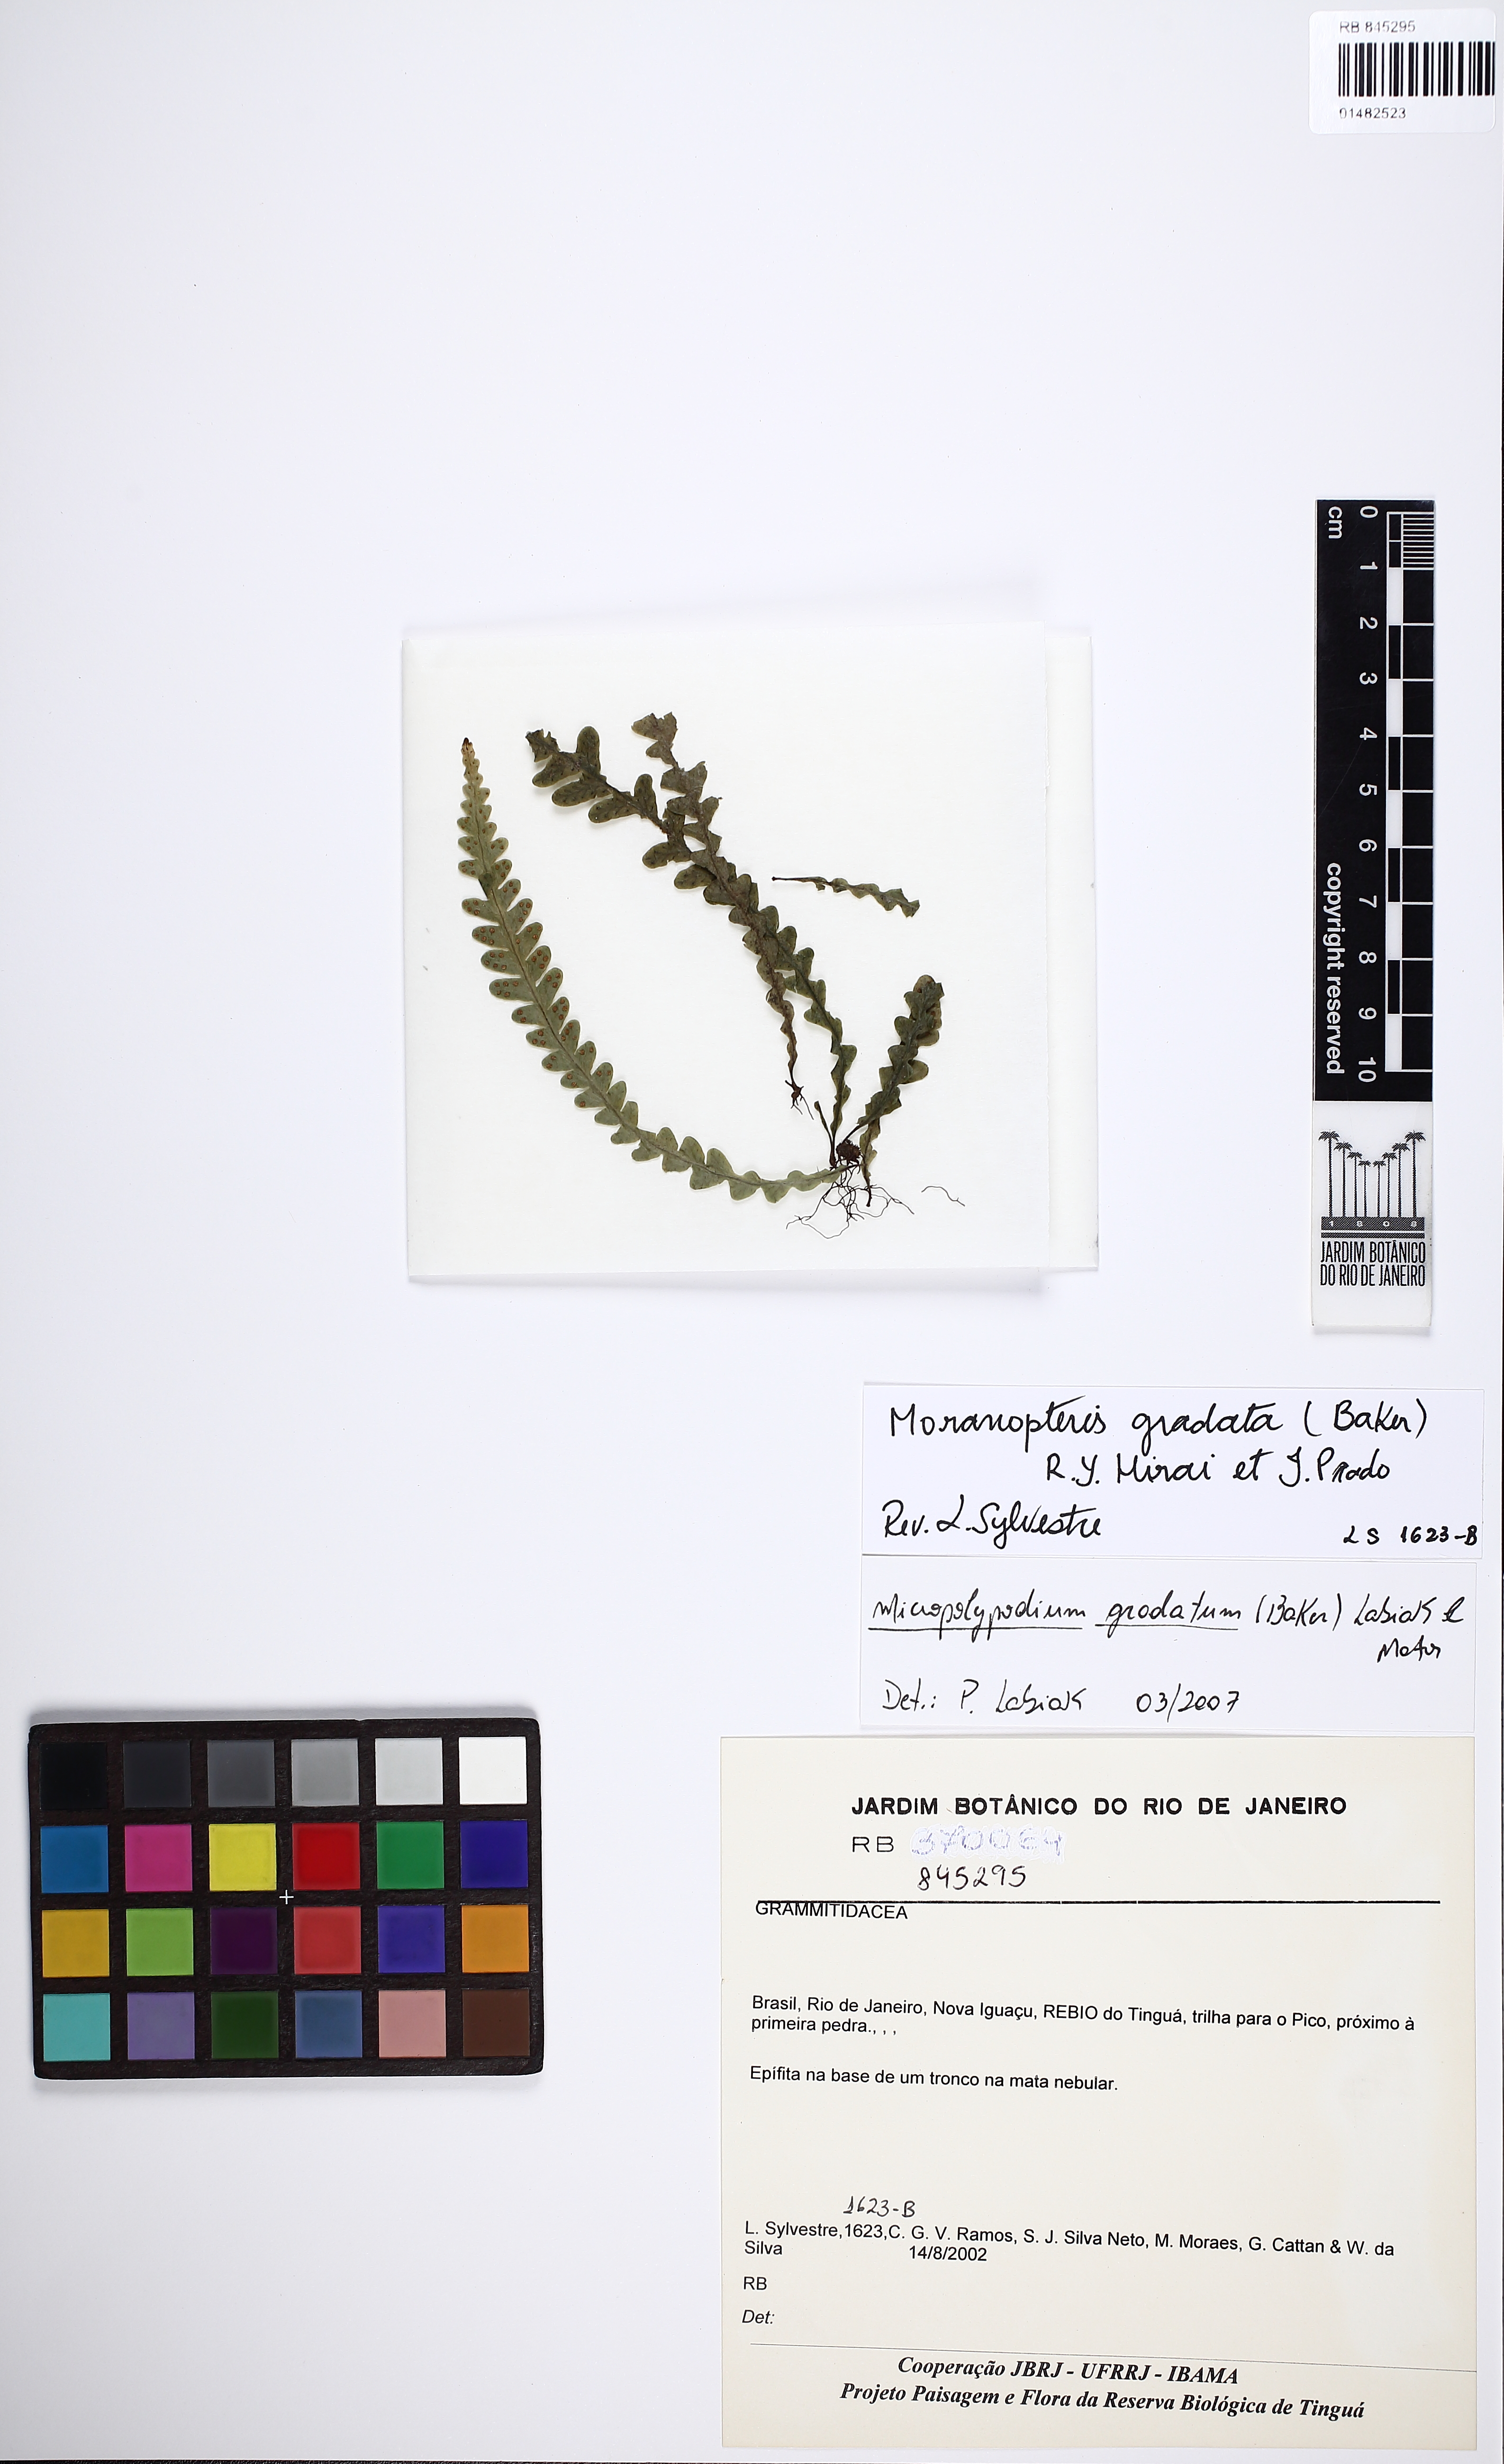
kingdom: Plantae
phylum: Tracheophyta
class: Polypodiopsida
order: Polypodiales
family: Polypodiaceae
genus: Moranopteris
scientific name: Moranopteris gradata
